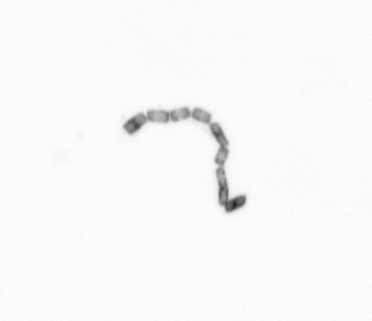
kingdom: Chromista
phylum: Ochrophyta
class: Bacillariophyceae
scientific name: Bacillariophyceae
